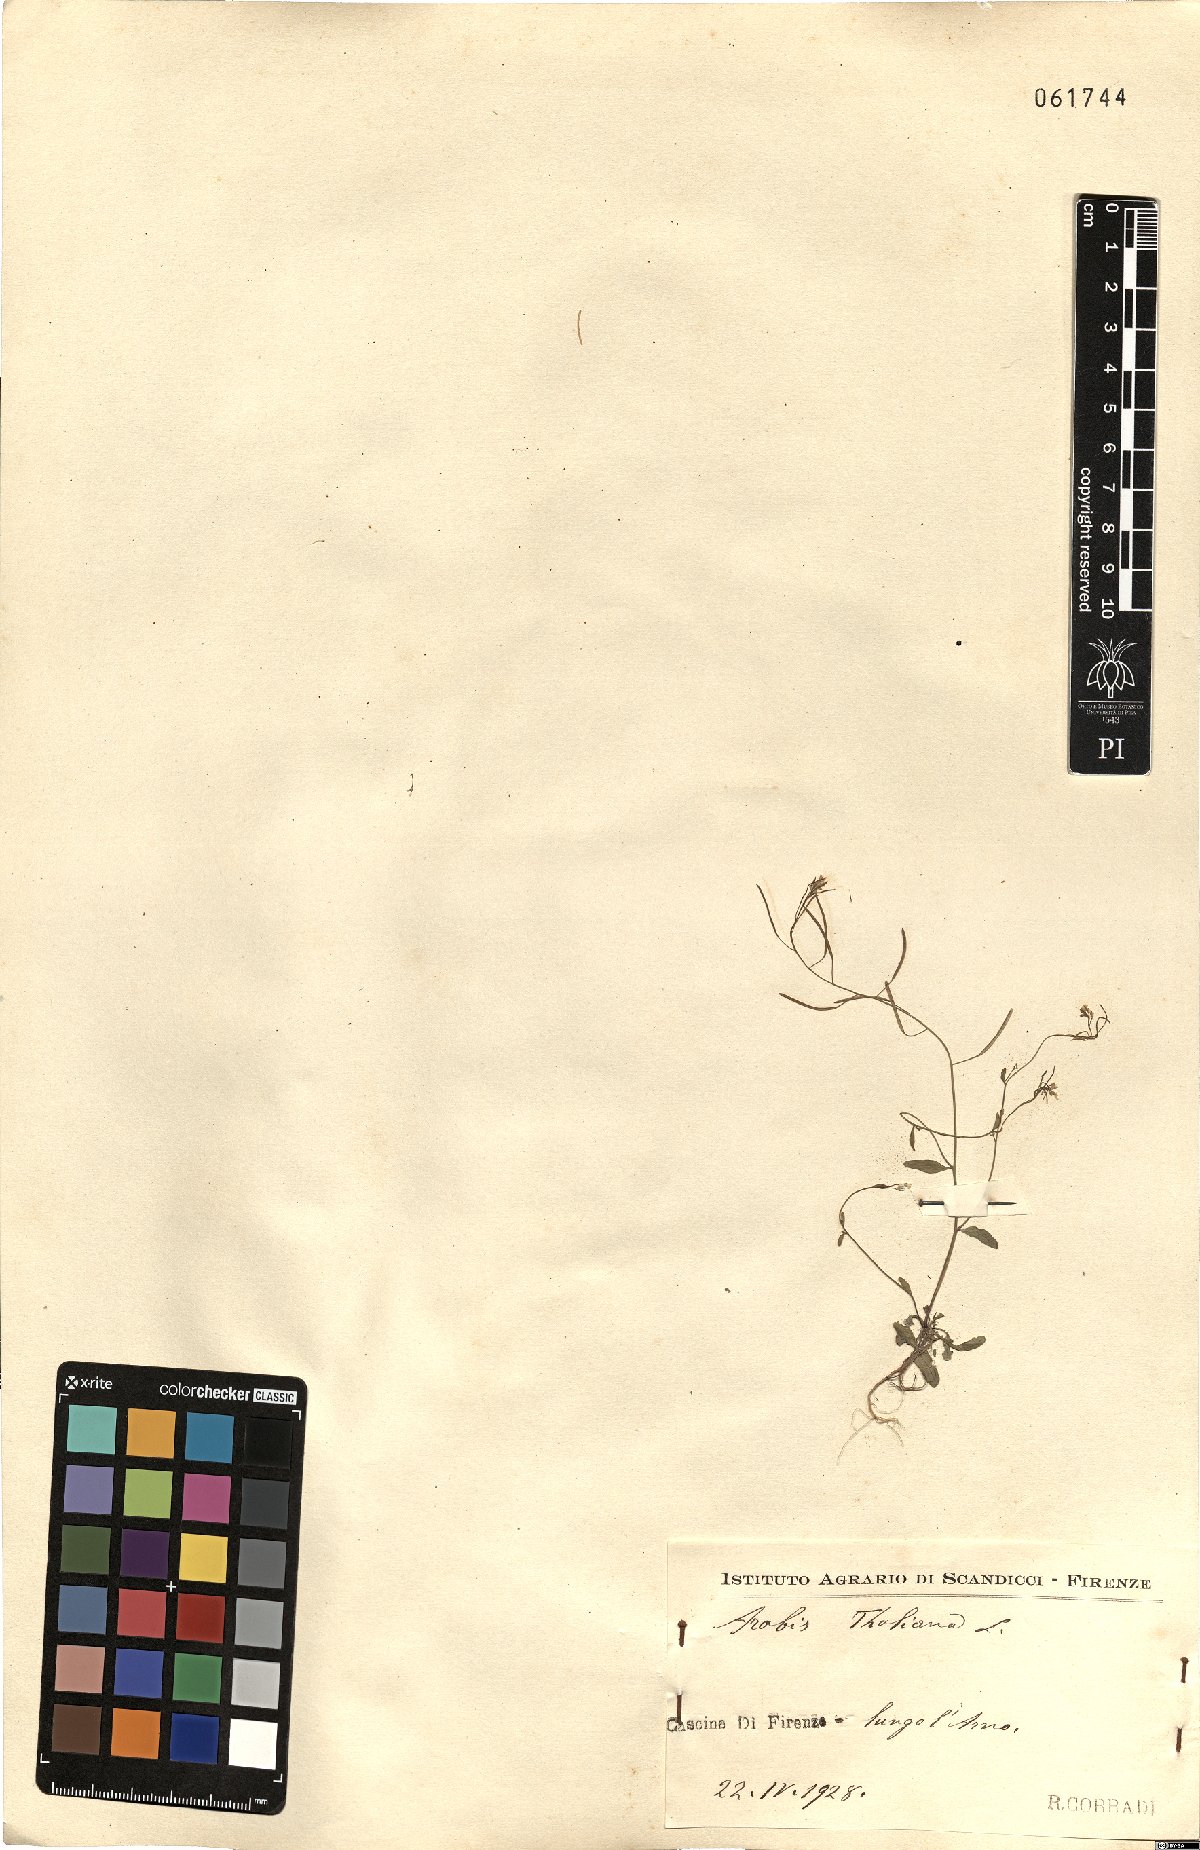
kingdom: Plantae
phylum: Tracheophyta
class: Magnoliopsida
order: Brassicales
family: Brassicaceae
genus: Arabidopsis
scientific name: Arabidopsis thaliana
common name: Thale cress
